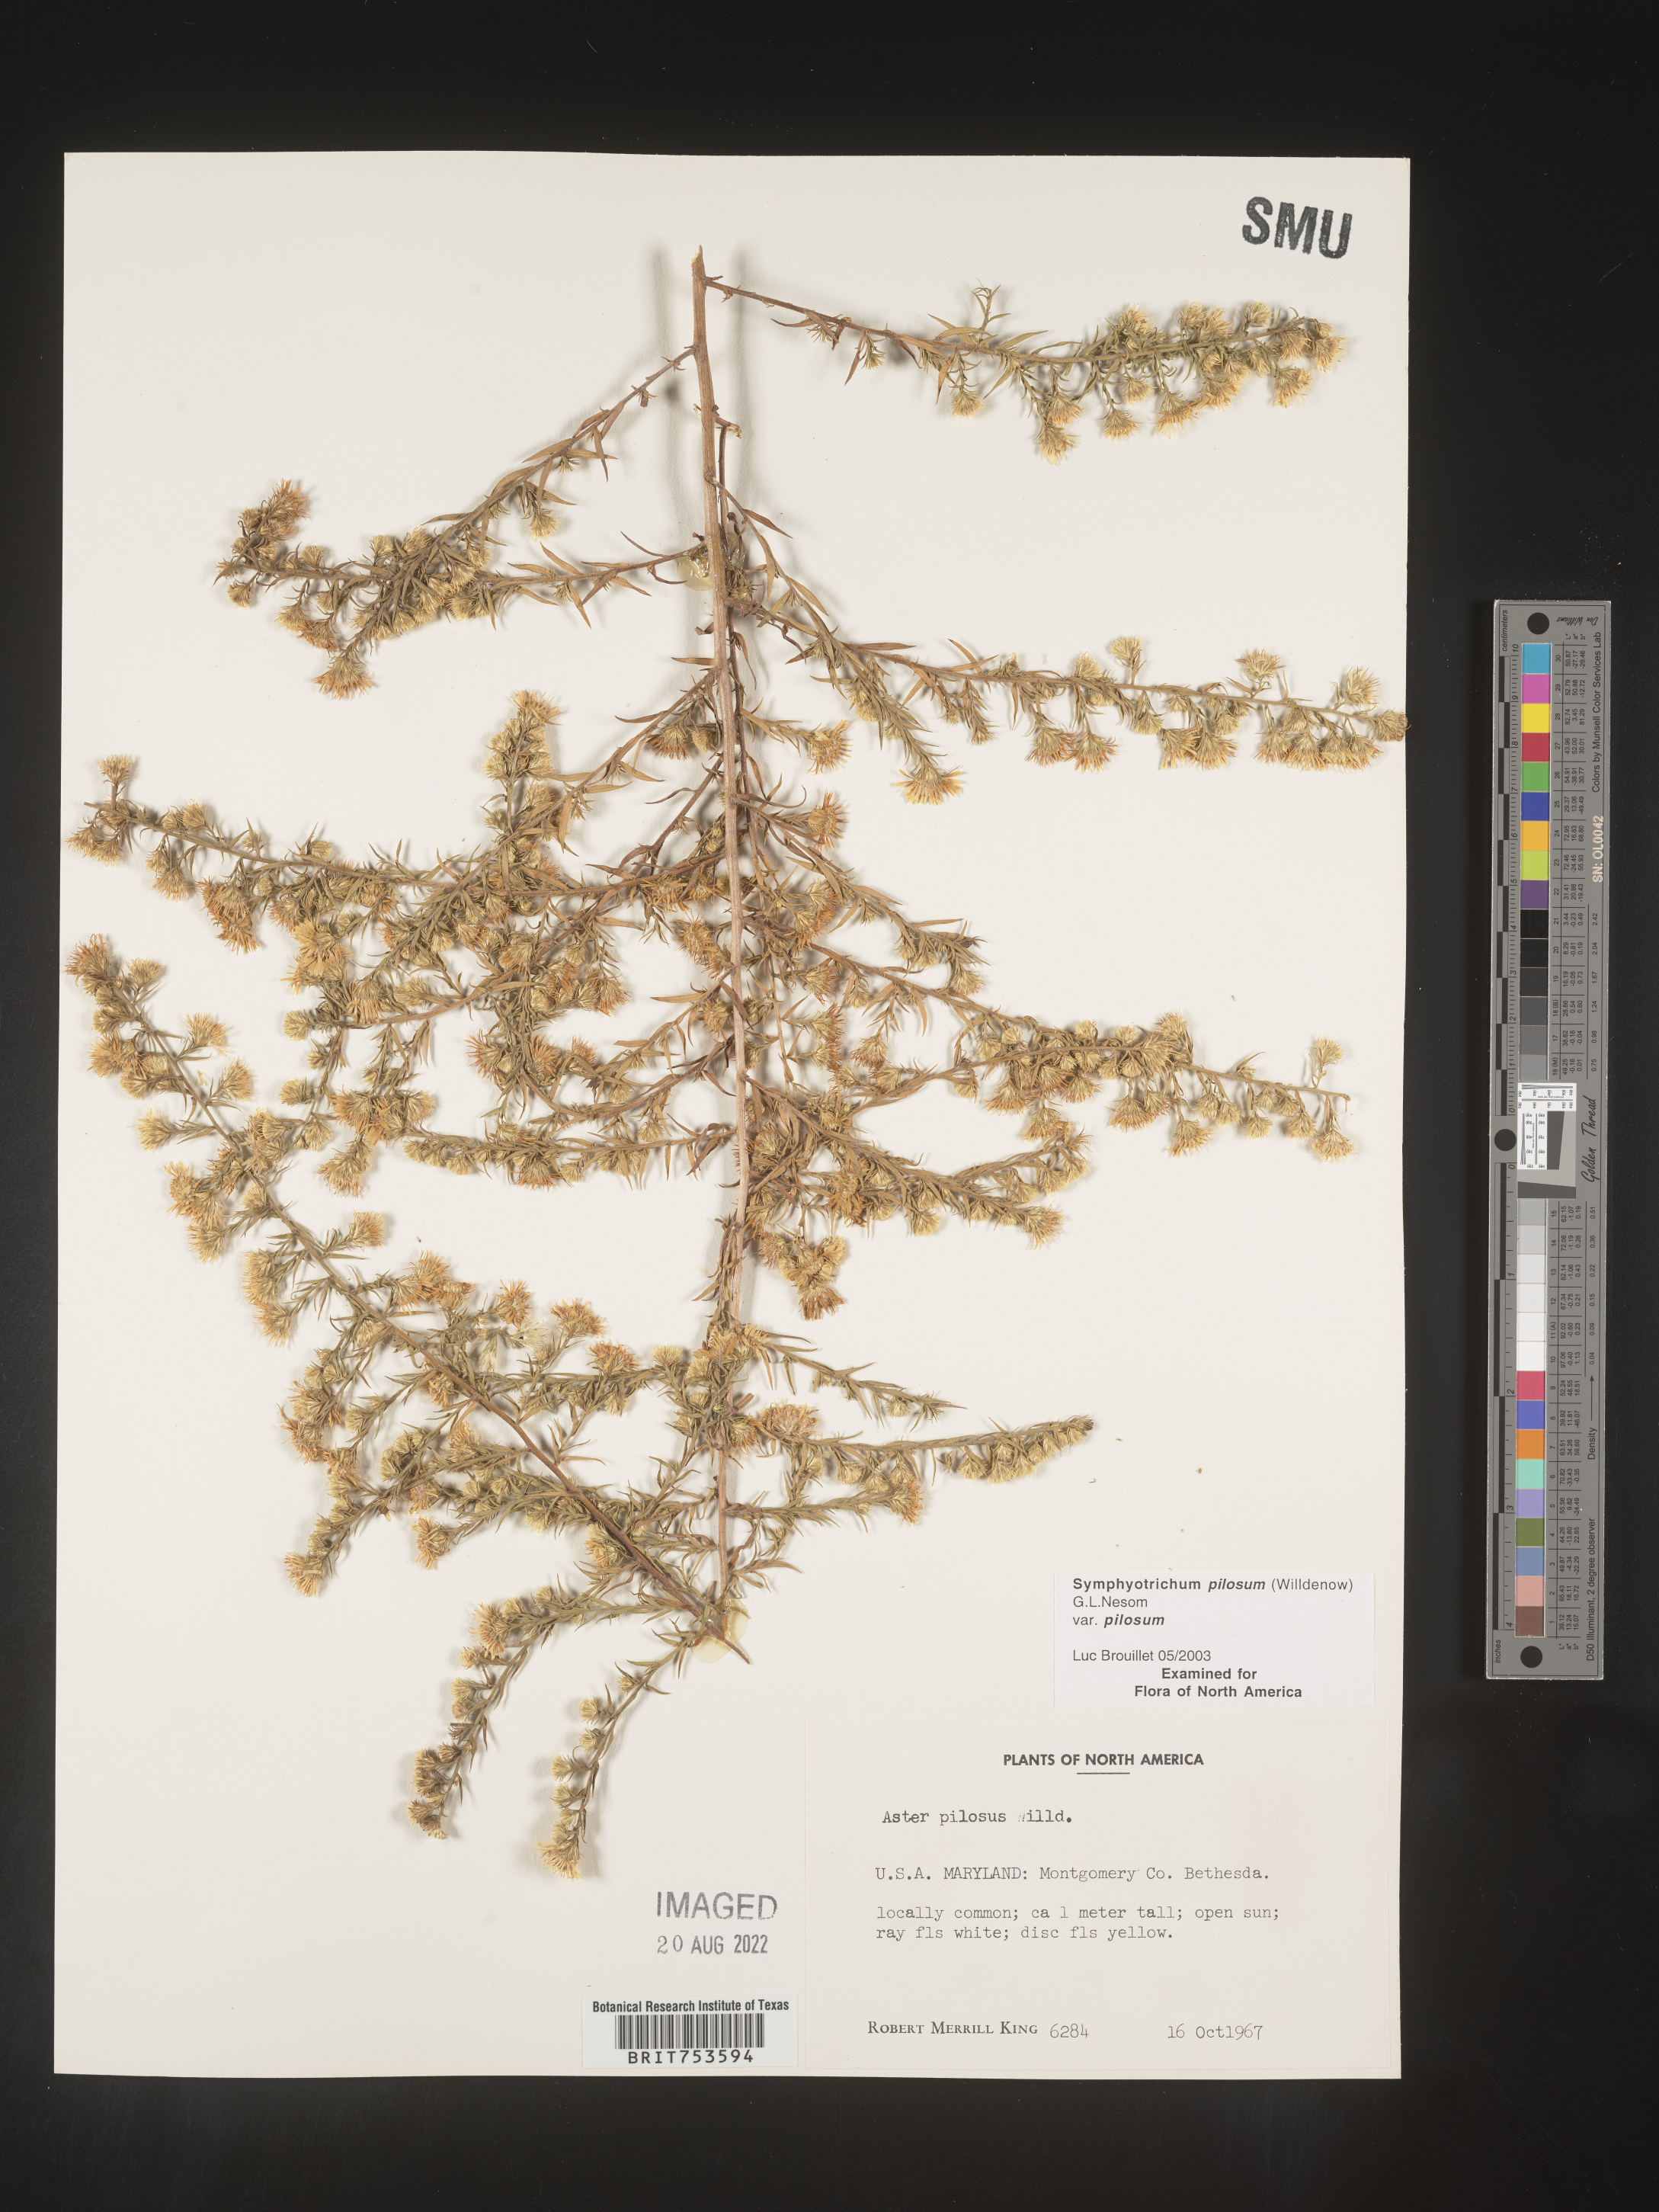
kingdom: Plantae
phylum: Tracheophyta
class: Magnoliopsida
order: Asterales
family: Asteraceae
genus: Symphyotrichum
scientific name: Symphyotrichum pilosum
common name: Awl aster
